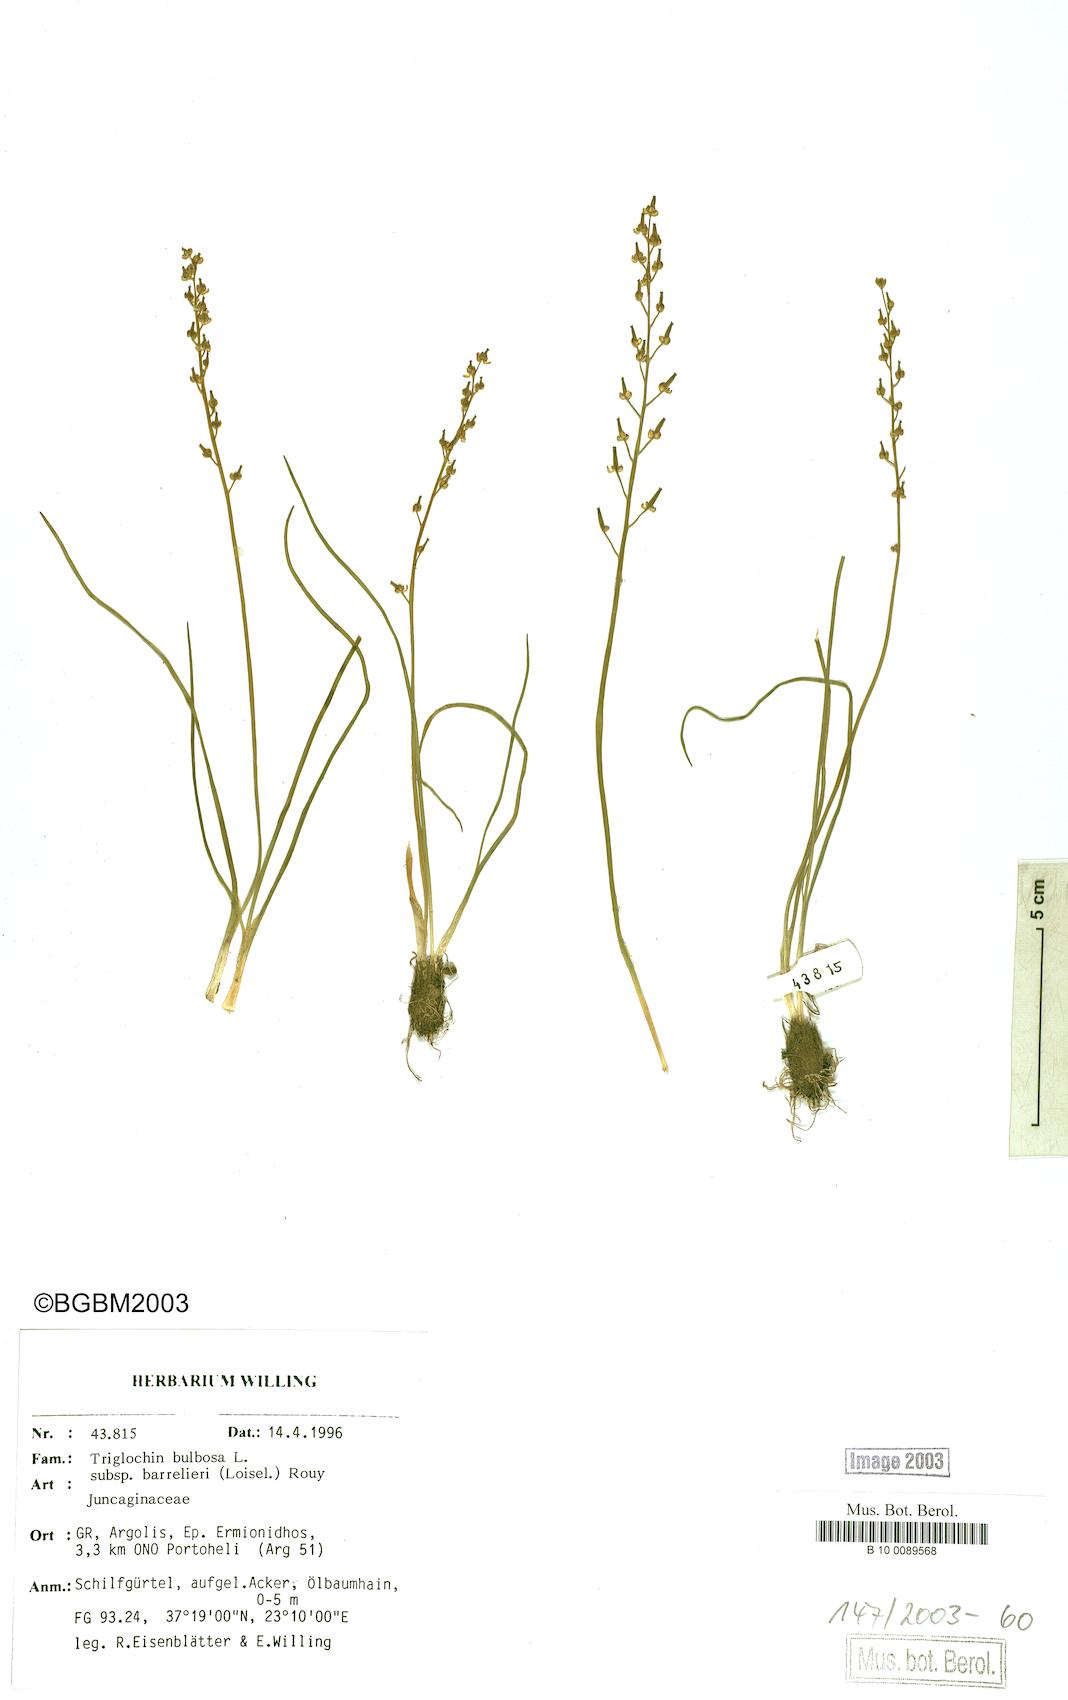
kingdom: Plantae
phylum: Tracheophyta
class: Liliopsida
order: Alismatales
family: Juncaginaceae
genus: Triglochin
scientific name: Triglochin barrelieri
